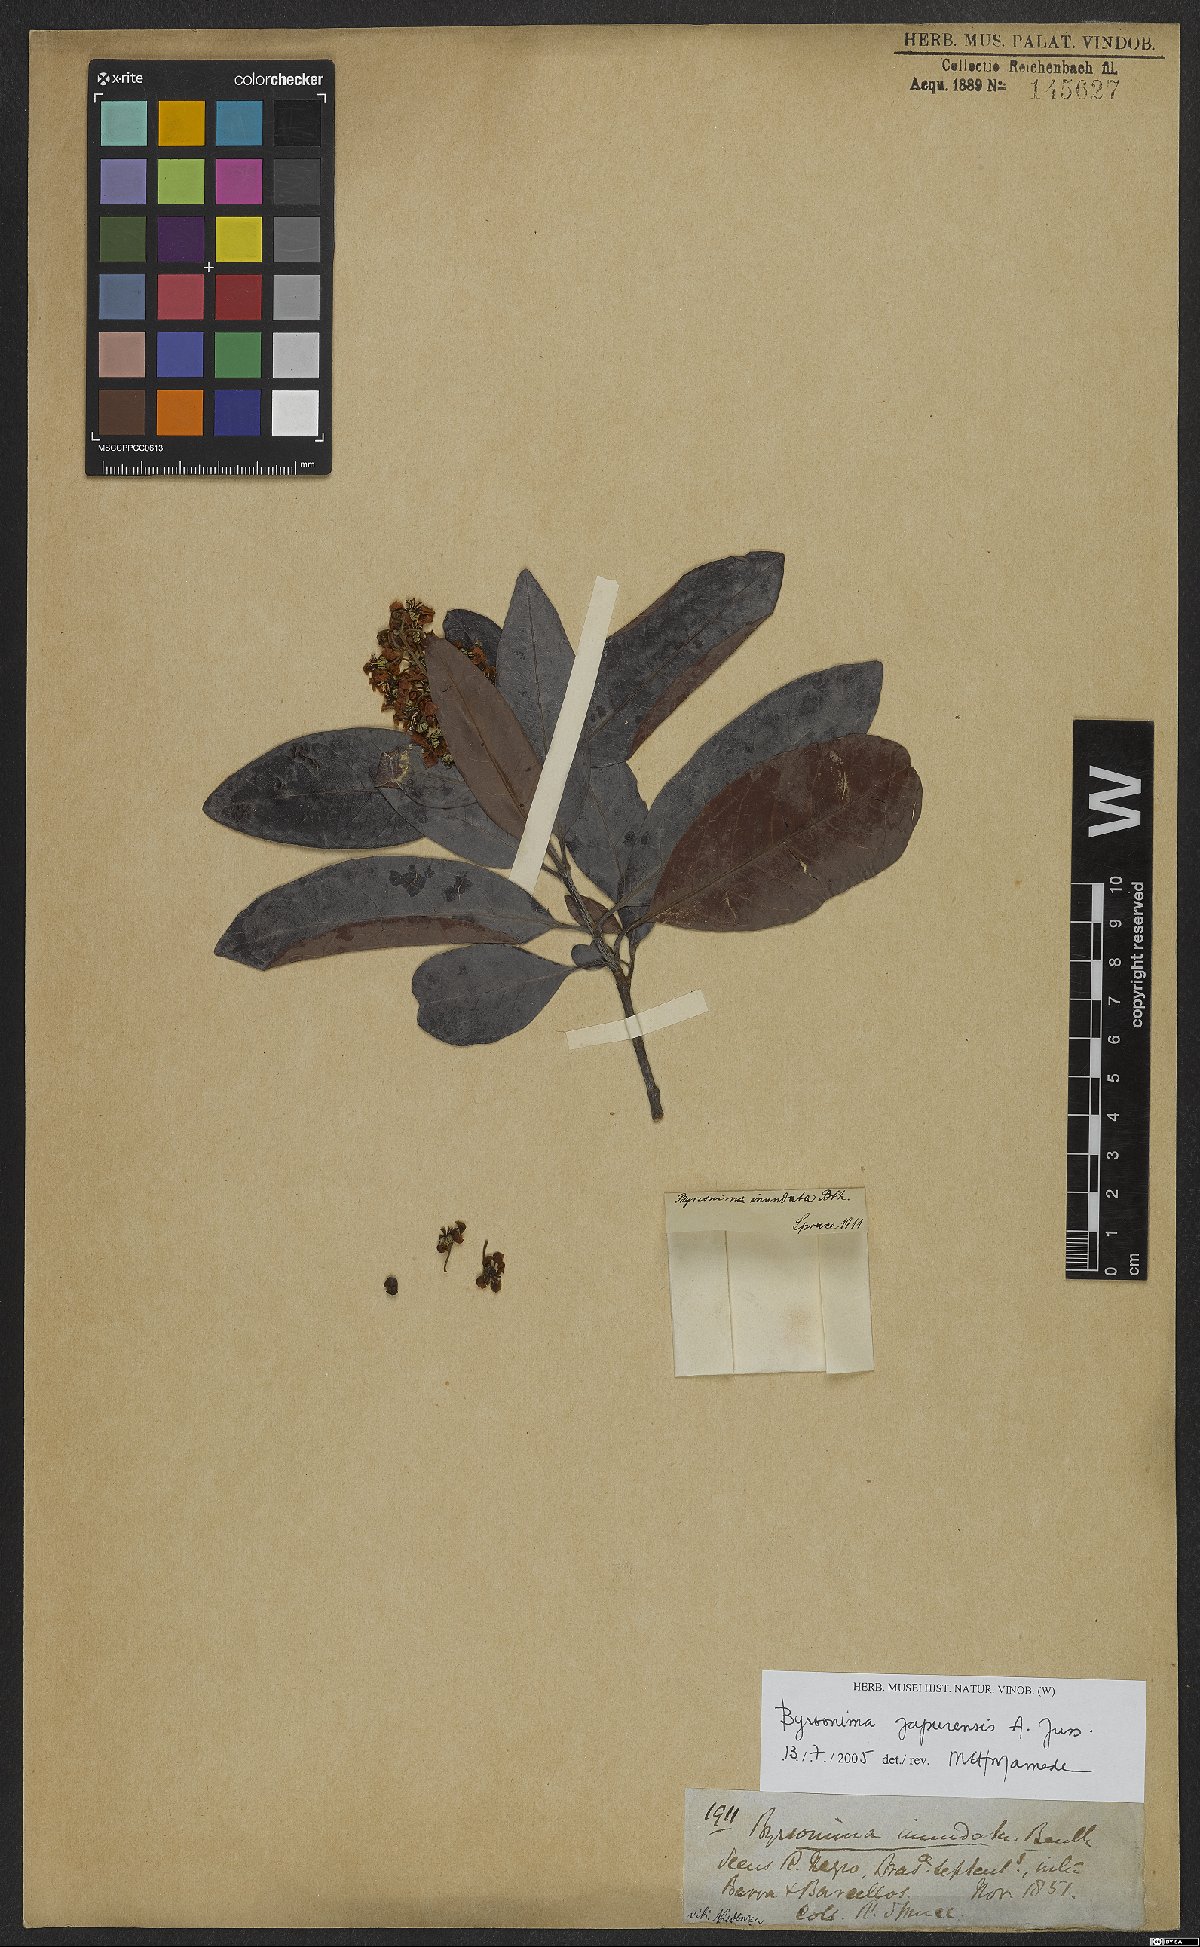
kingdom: Plantae
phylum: Tracheophyta
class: Magnoliopsida
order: Malpighiales
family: Malpighiaceae
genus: Byrsonima
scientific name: Byrsonima japurensis
